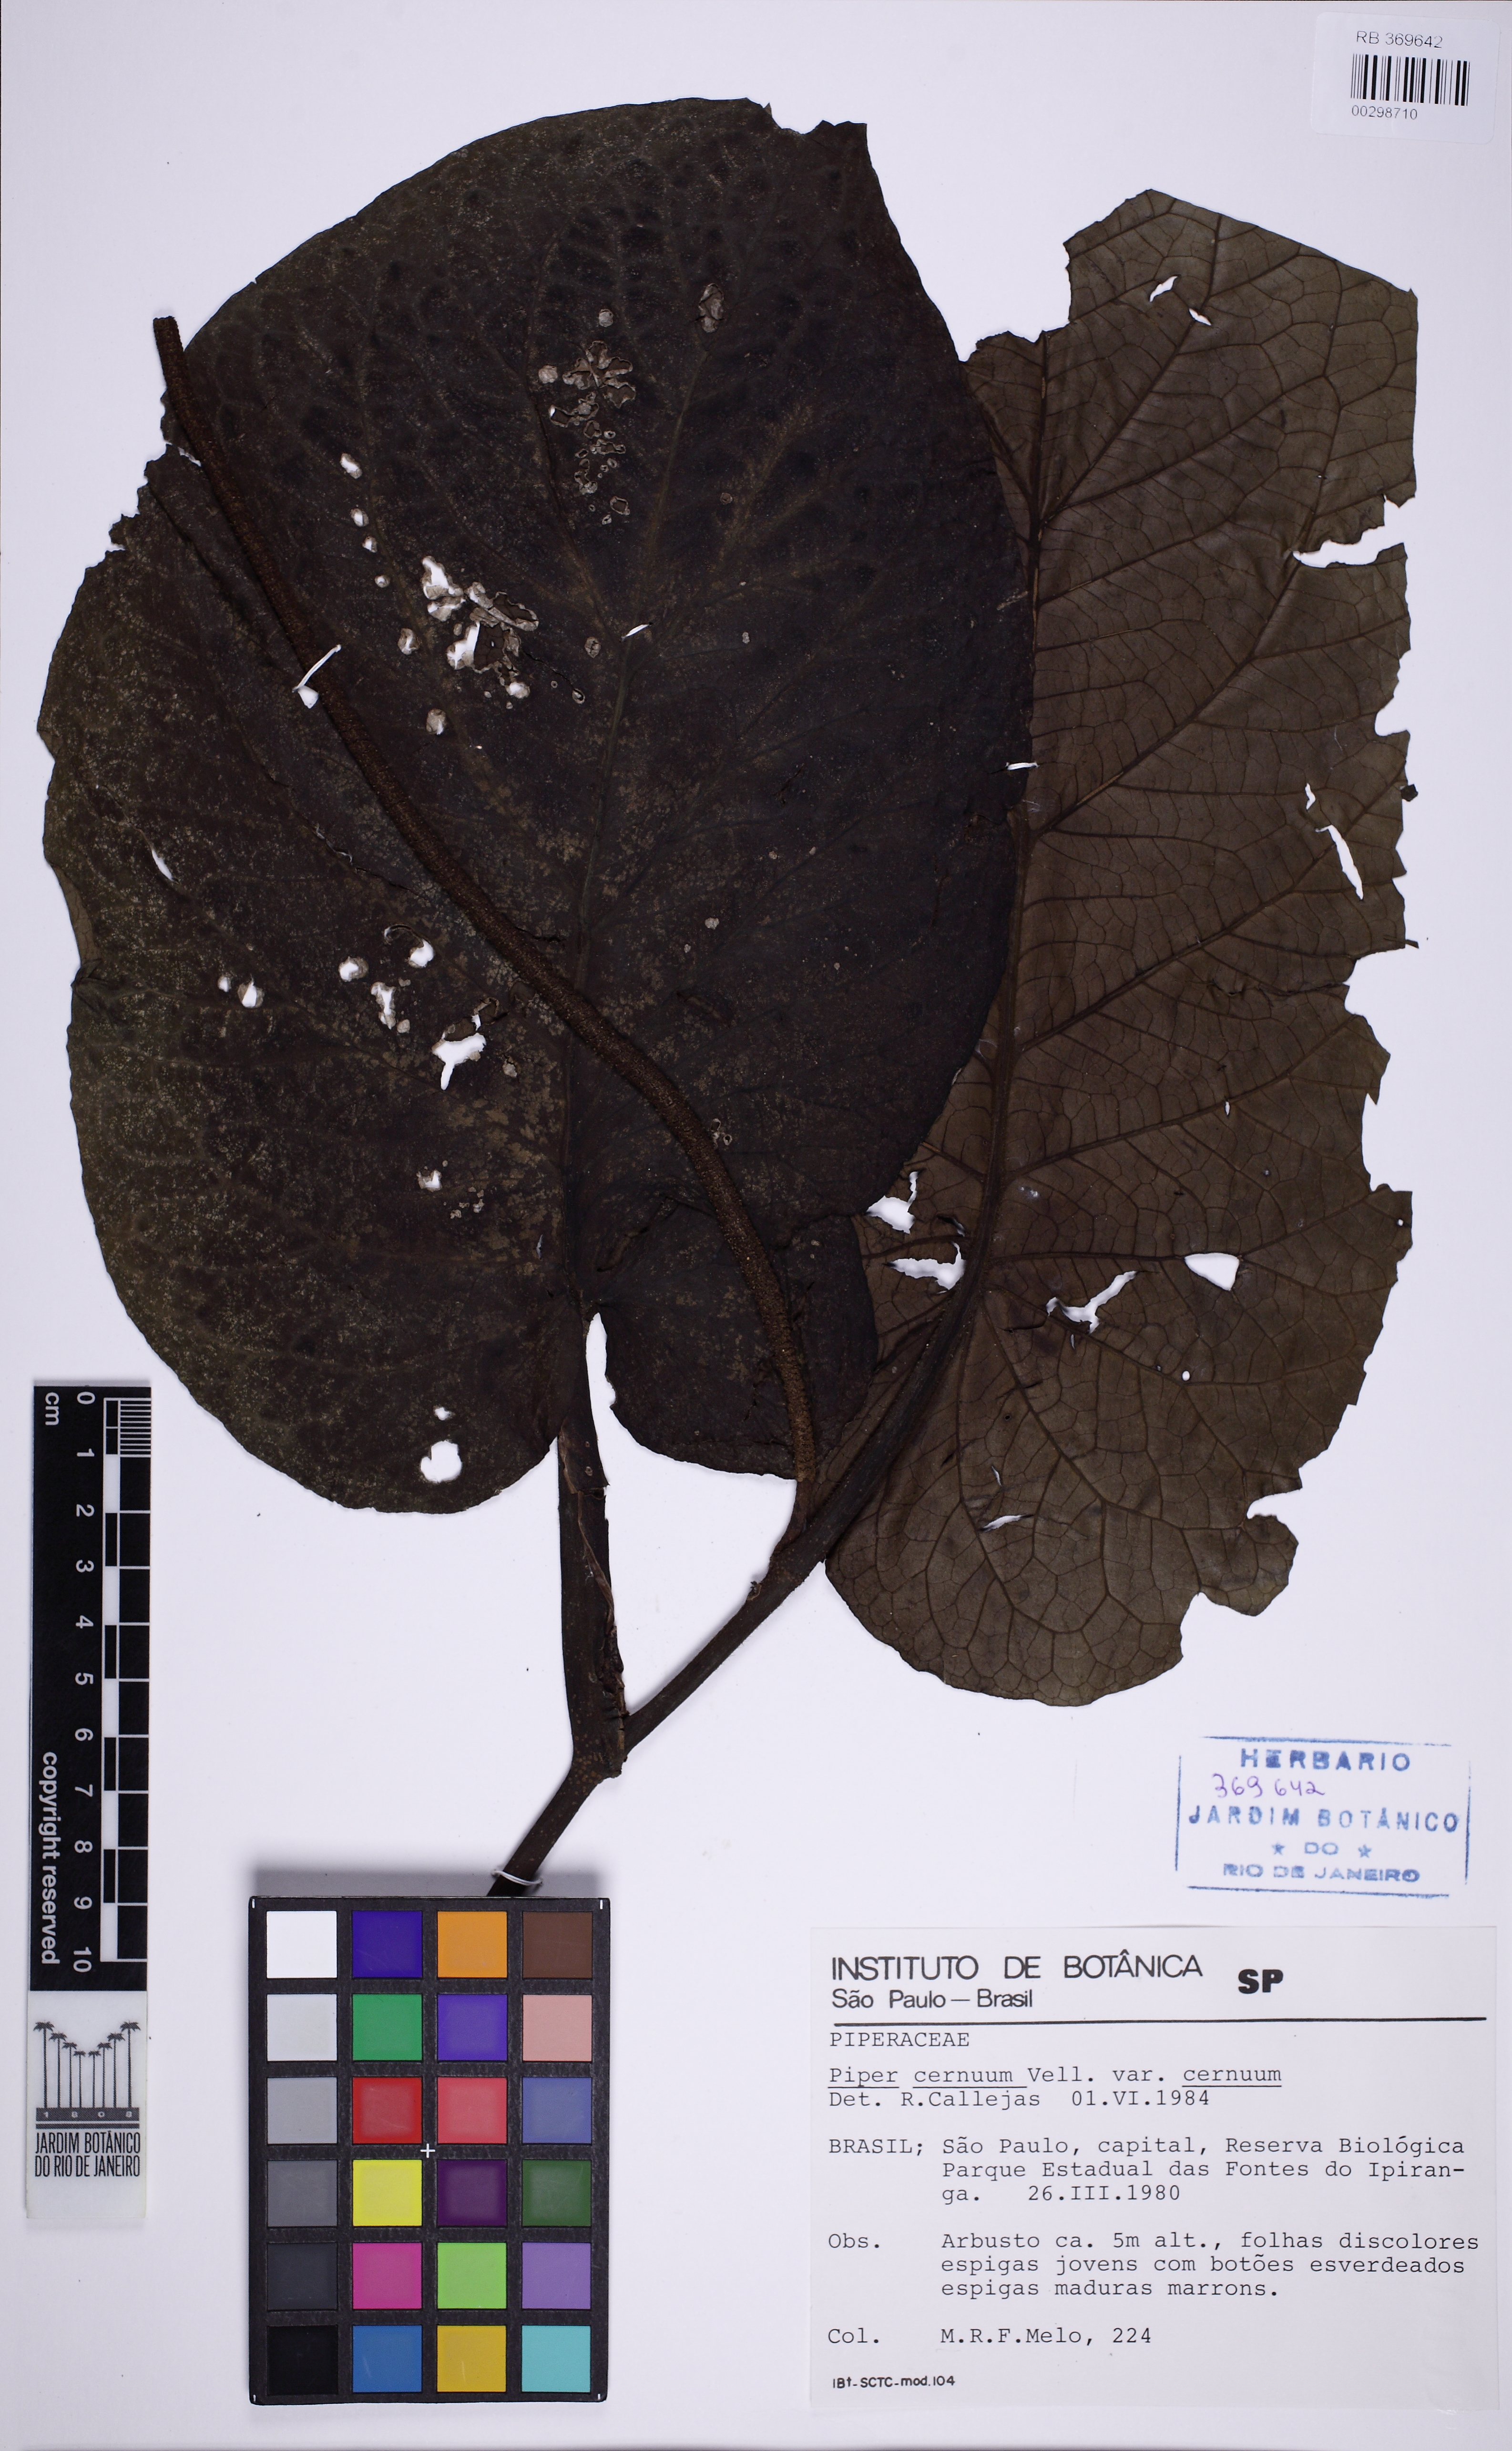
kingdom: Plantae
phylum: Tracheophyta
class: Magnoliopsida
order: Piperales
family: Piperaceae
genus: Piper
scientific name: Piper cernuum
